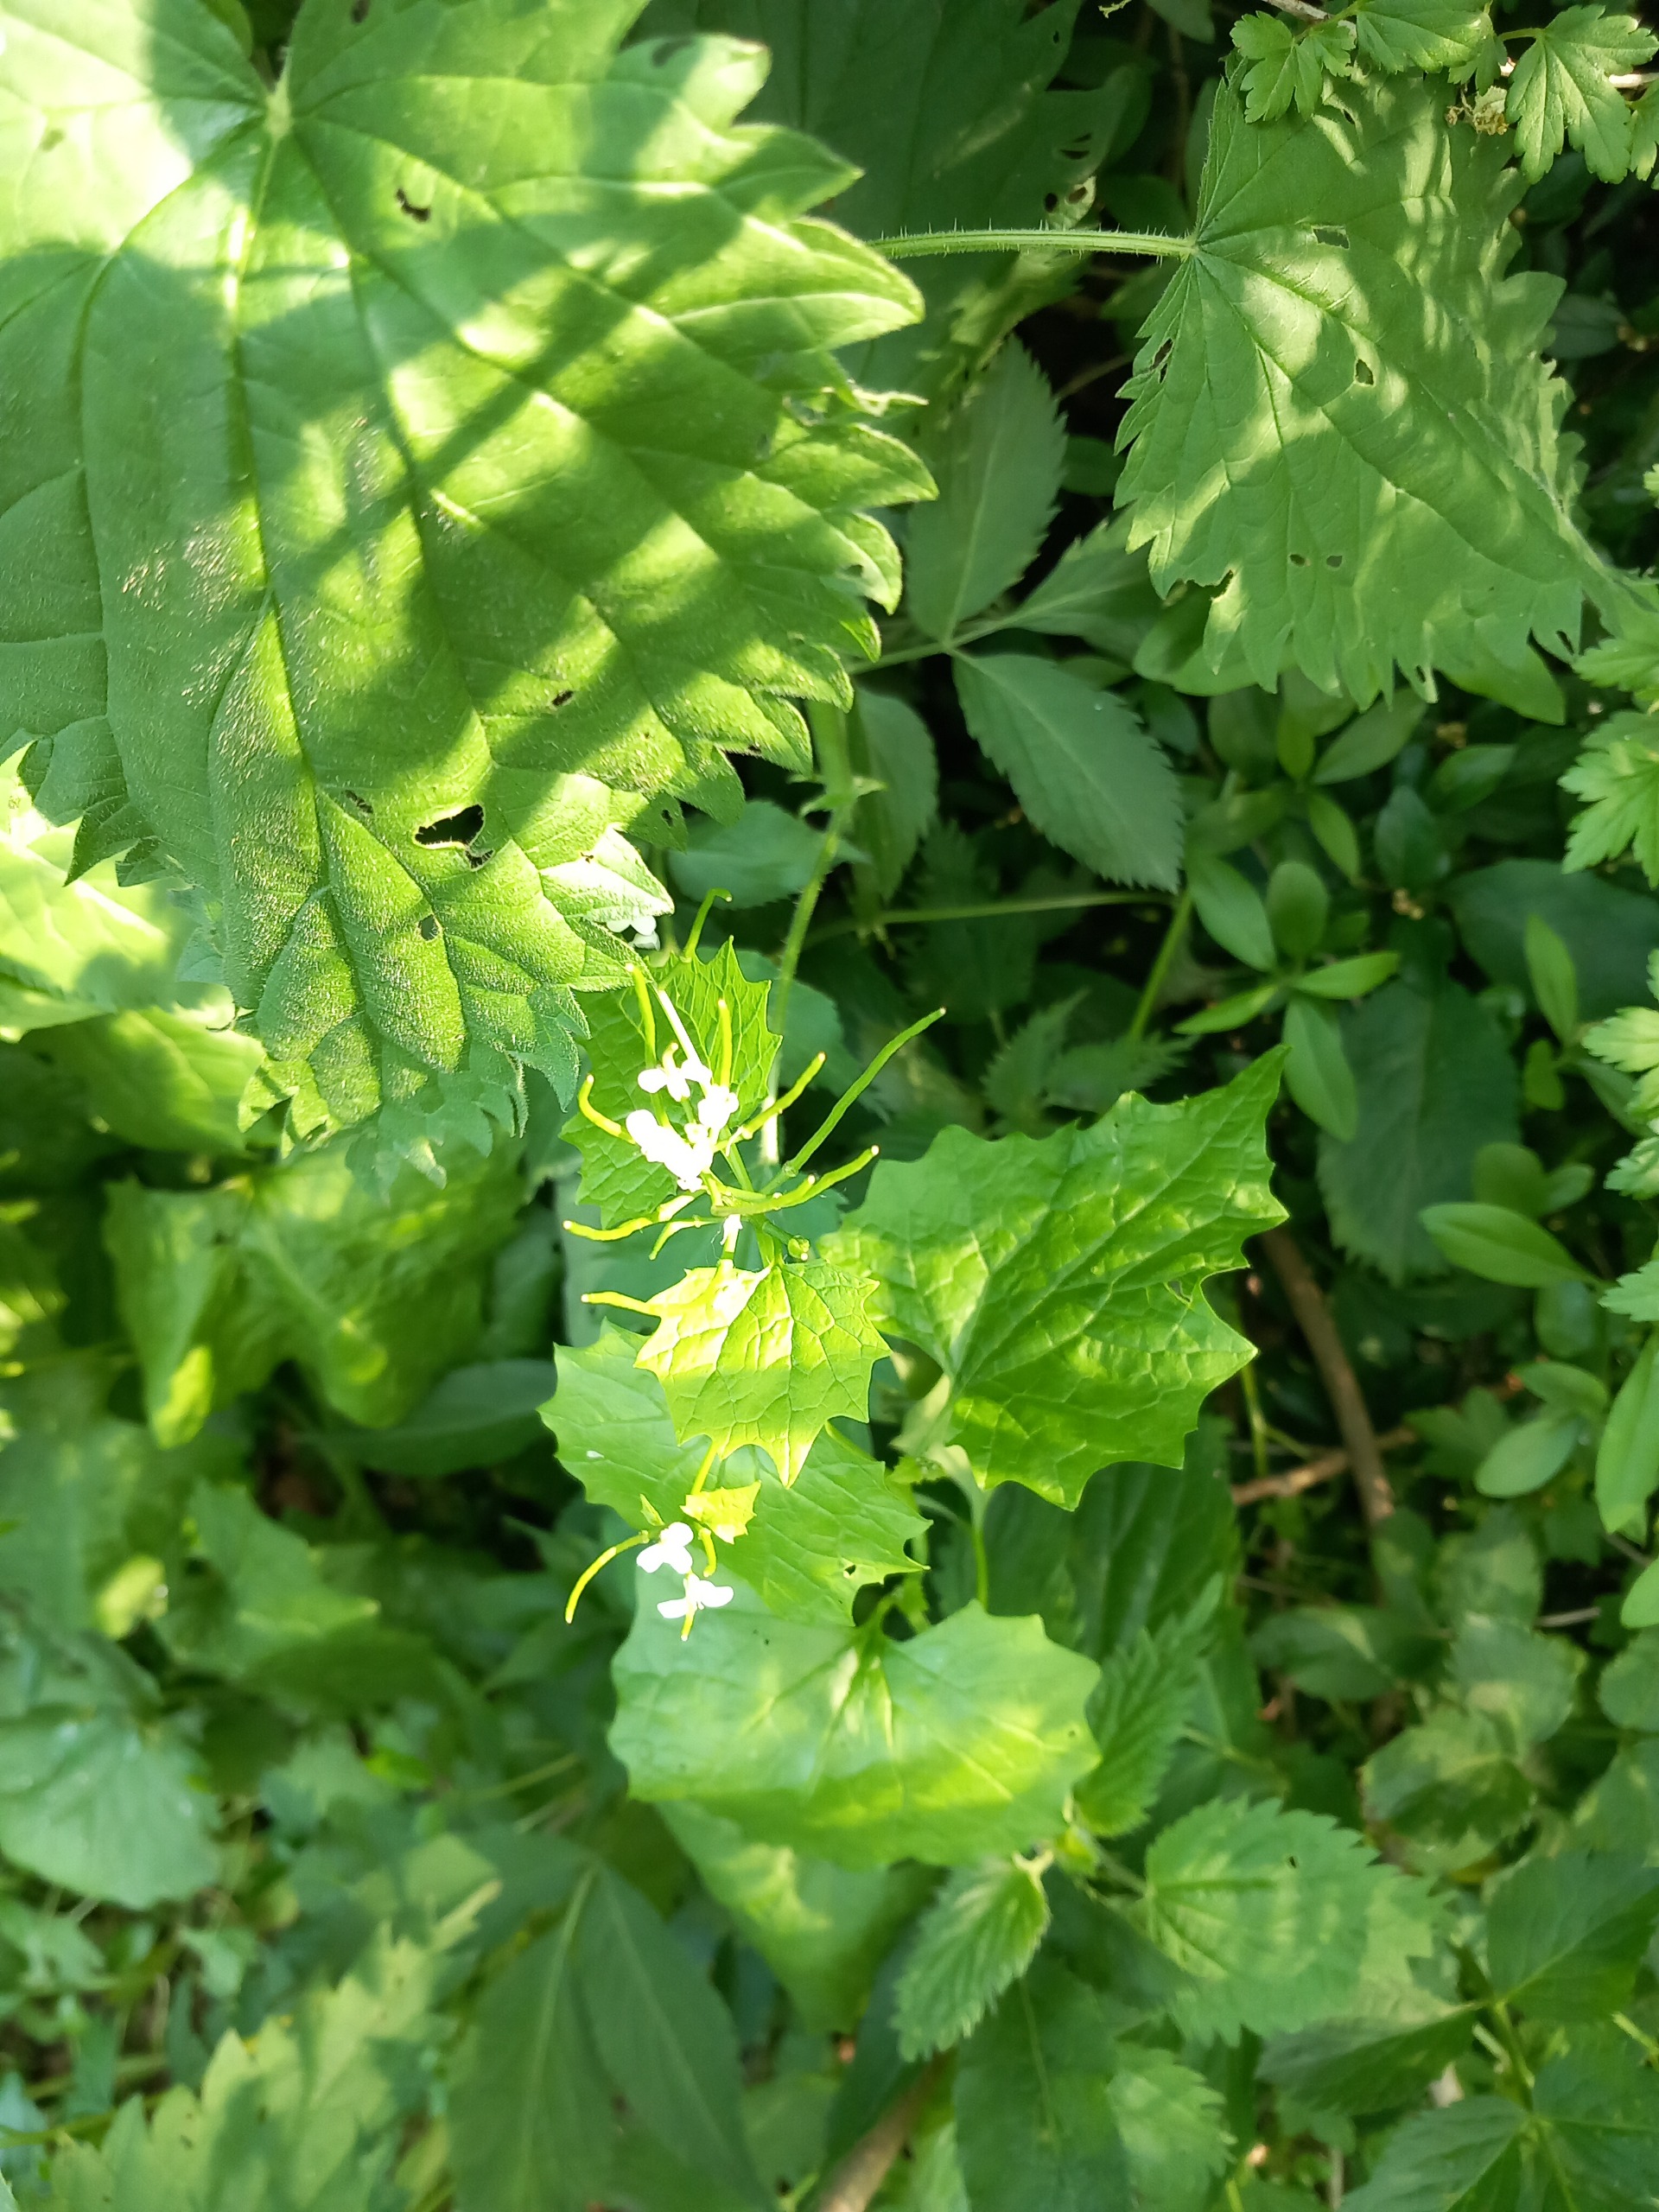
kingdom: Plantae
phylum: Tracheophyta
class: Magnoliopsida
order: Brassicales
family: Brassicaceae
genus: Alliaria
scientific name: Alliaria petiolata
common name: Løgkarse
